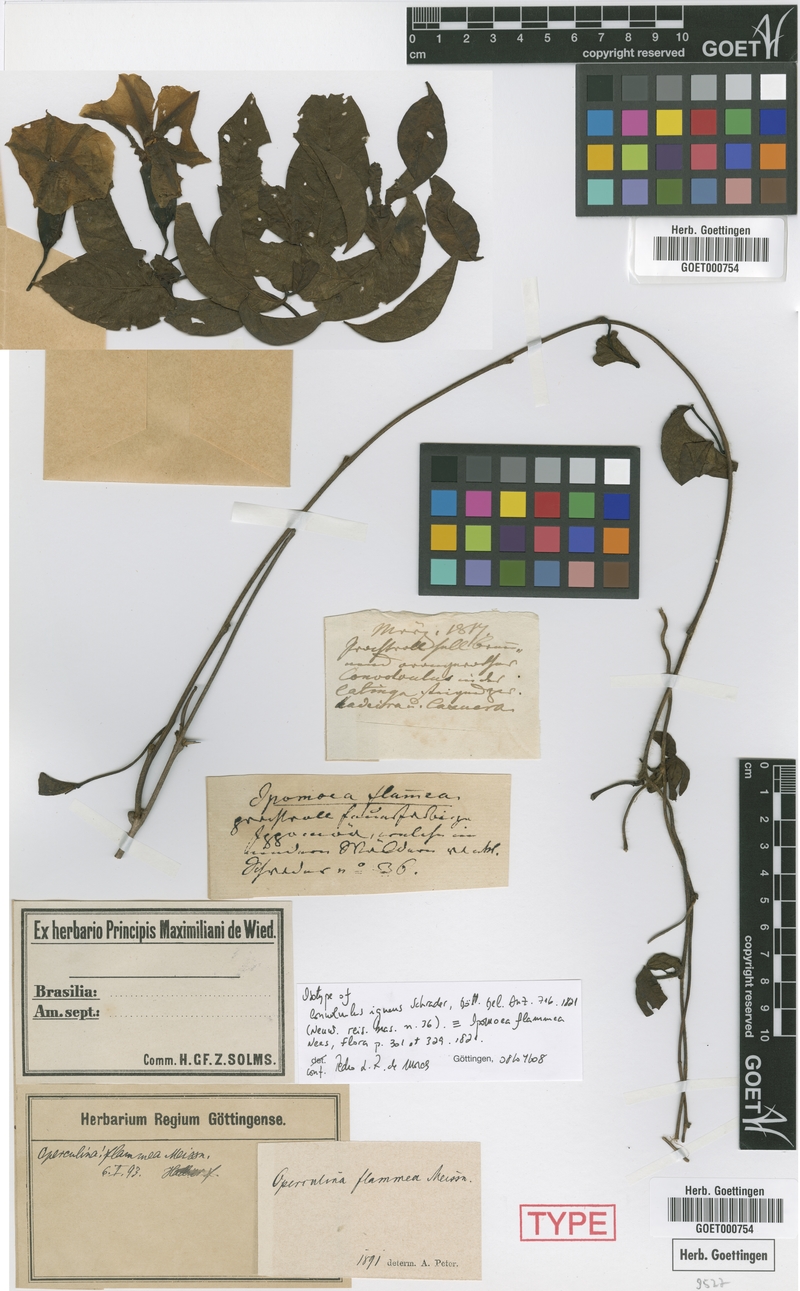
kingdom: Plantae
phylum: Tracheophyta
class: Magnoliopsida
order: Solanales
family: Convolvulaceae
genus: Distimake
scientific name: Distimake igneus
